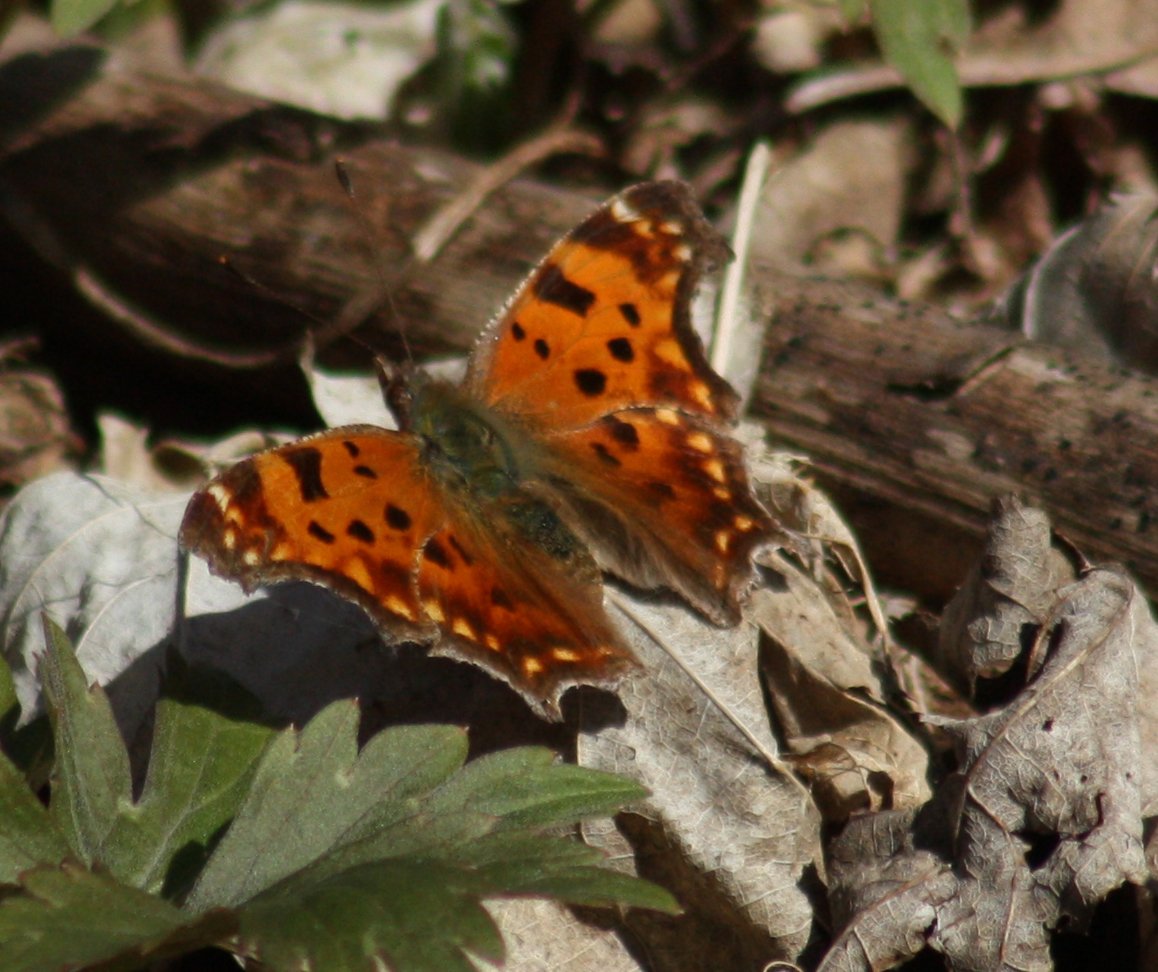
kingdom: Animalia
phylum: Arthropoda
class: Insecta
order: Lepidoptera
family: Nymphalidae
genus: Polygonia
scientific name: Polygonia comma
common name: Eastern Comma
